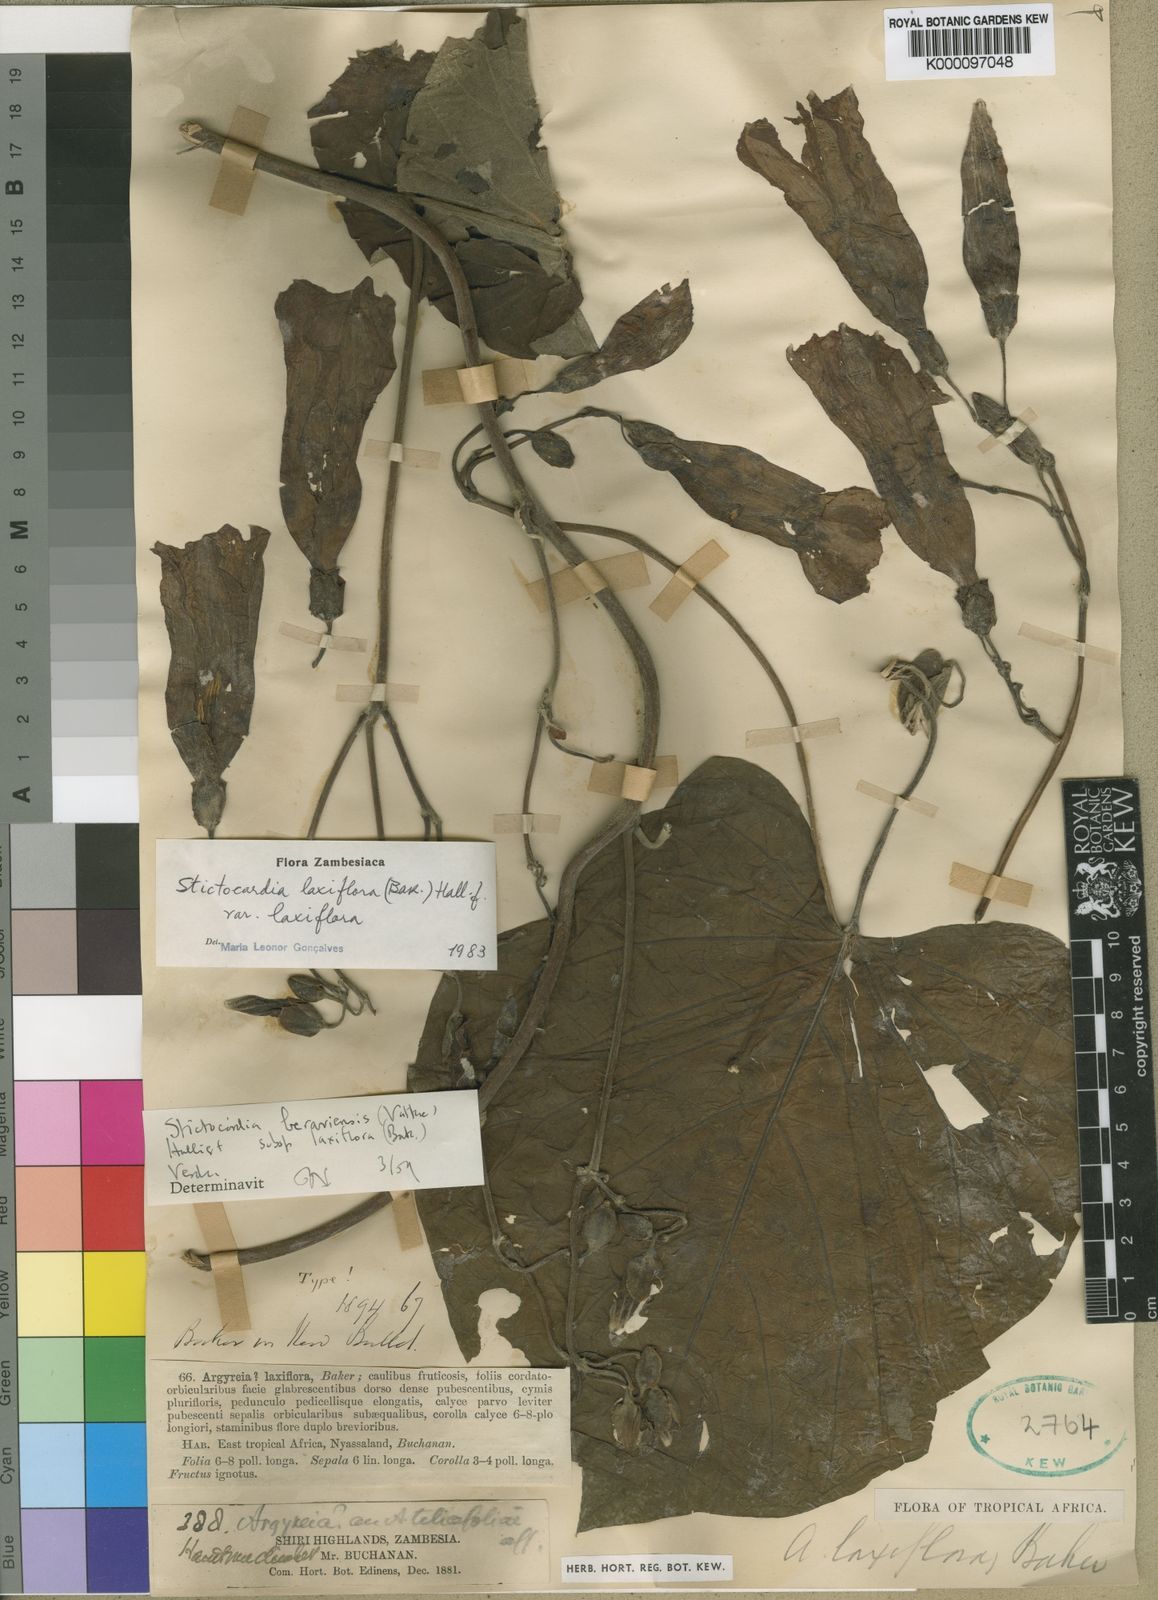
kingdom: Plantae
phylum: Tracheophyta
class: Magnoliopsida
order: Solanales
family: Convolvulaceae
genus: Stictocardia
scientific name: Stictocardia laxiflora
